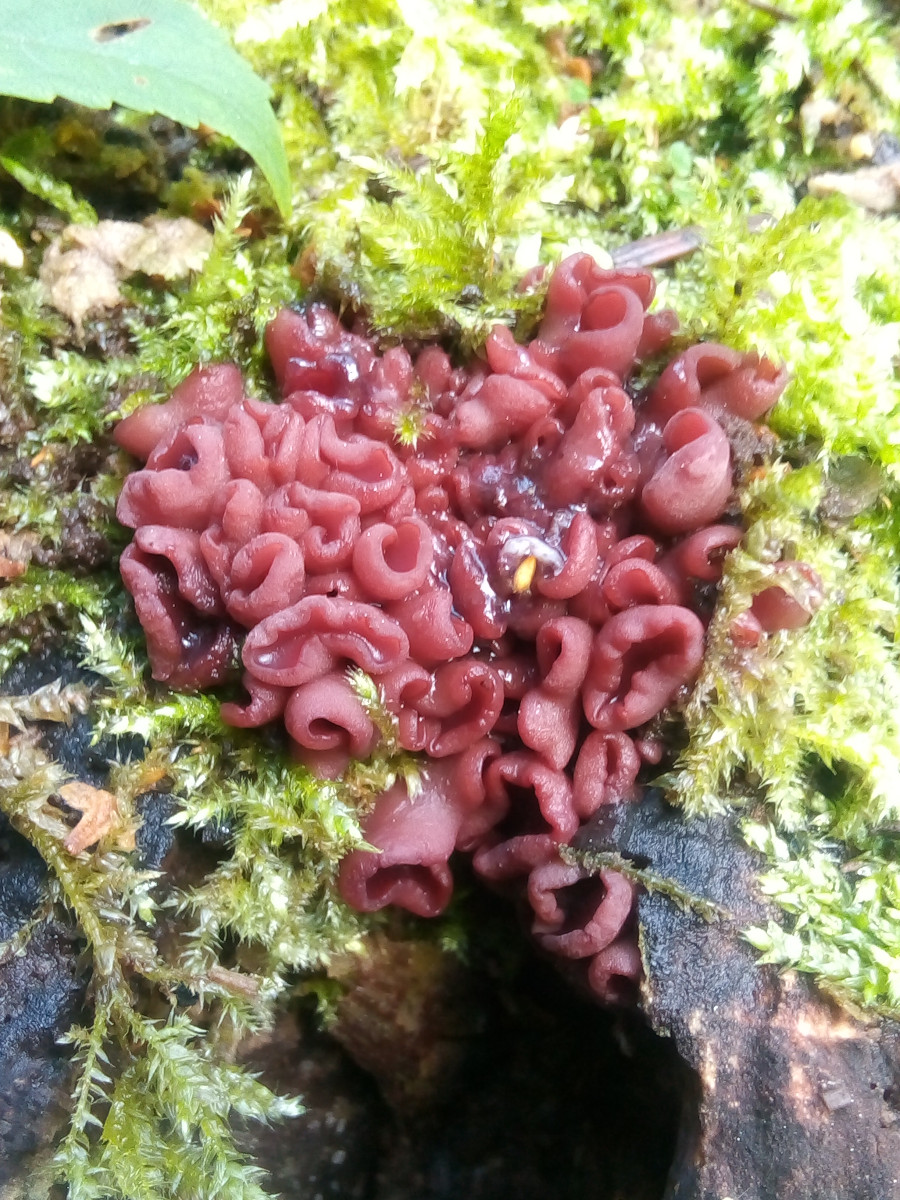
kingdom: Fungi
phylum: Ascomycota
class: Leotiomycetes
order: Helotiales
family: Gelatinodiscaceae
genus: Ascocoryne
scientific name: Ascocoryne cylichnium
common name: stor sejskive
